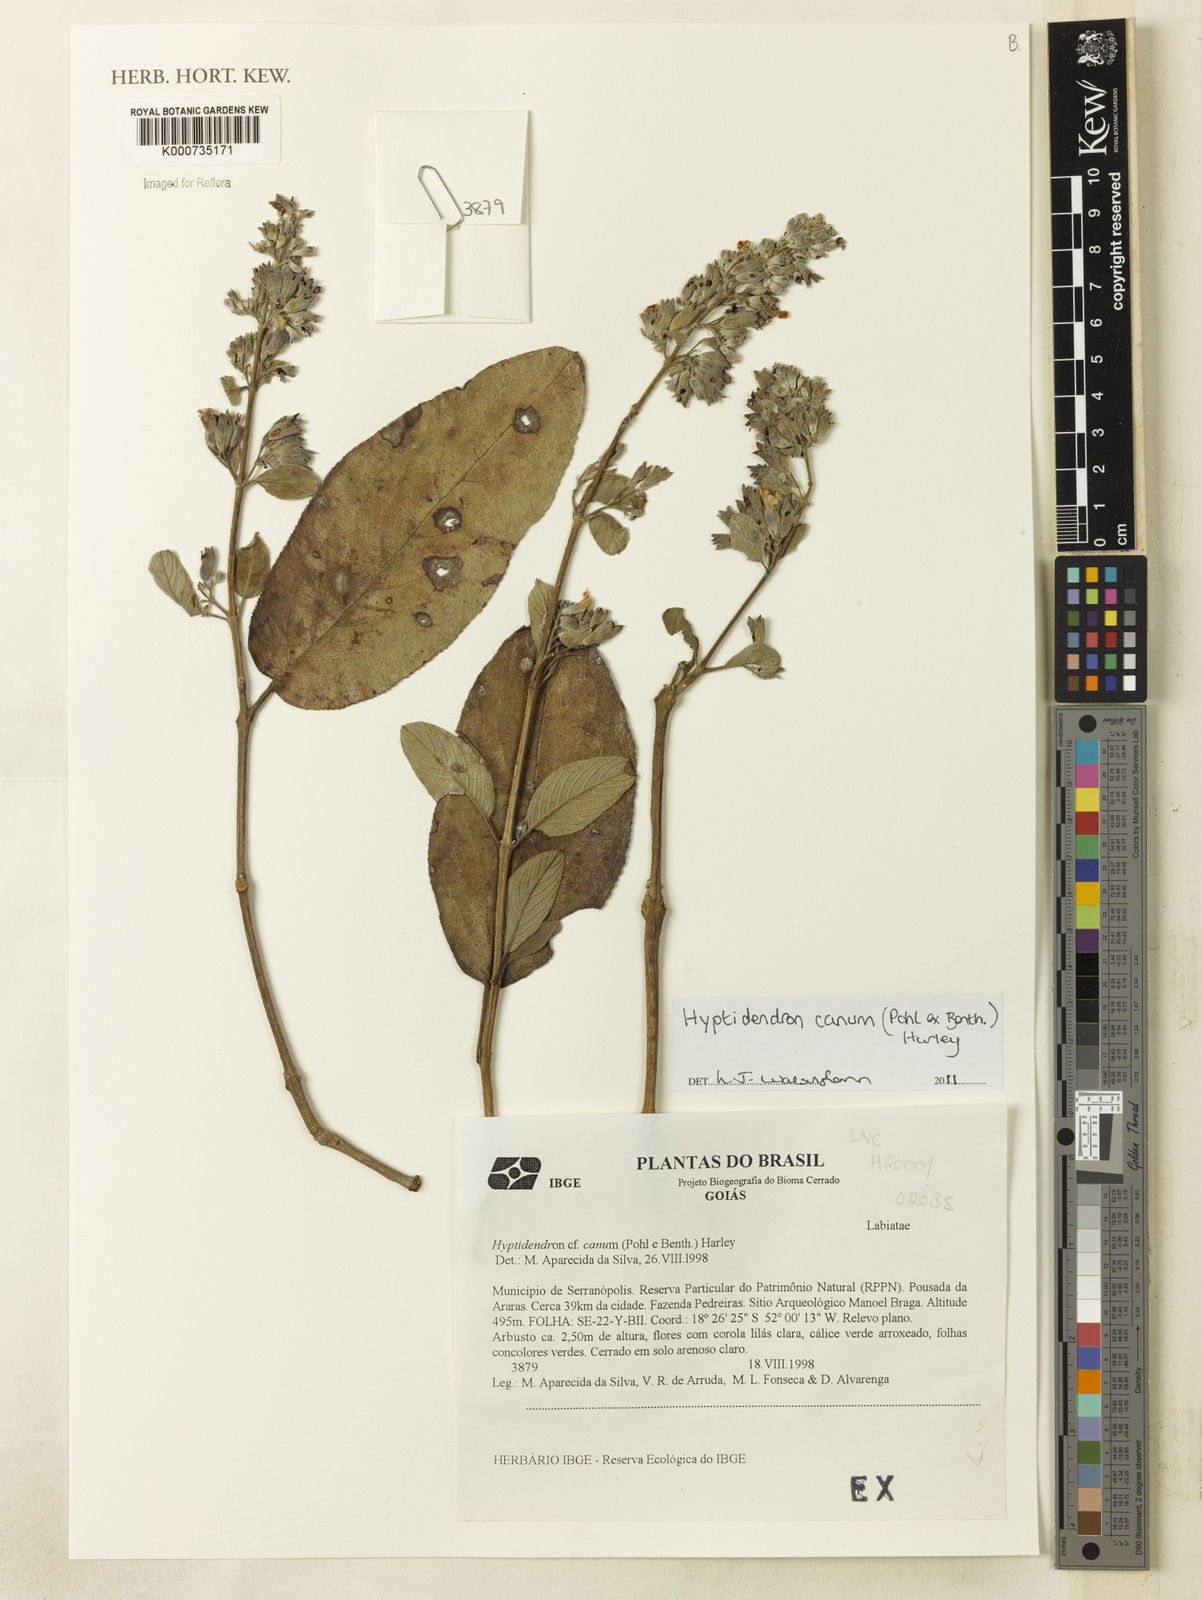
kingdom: Plantae
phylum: Tracheophyta
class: Magnoliopsida
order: Lamiales
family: Lamiaceae
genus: Hyptidendron
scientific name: Hyptidendron canum
